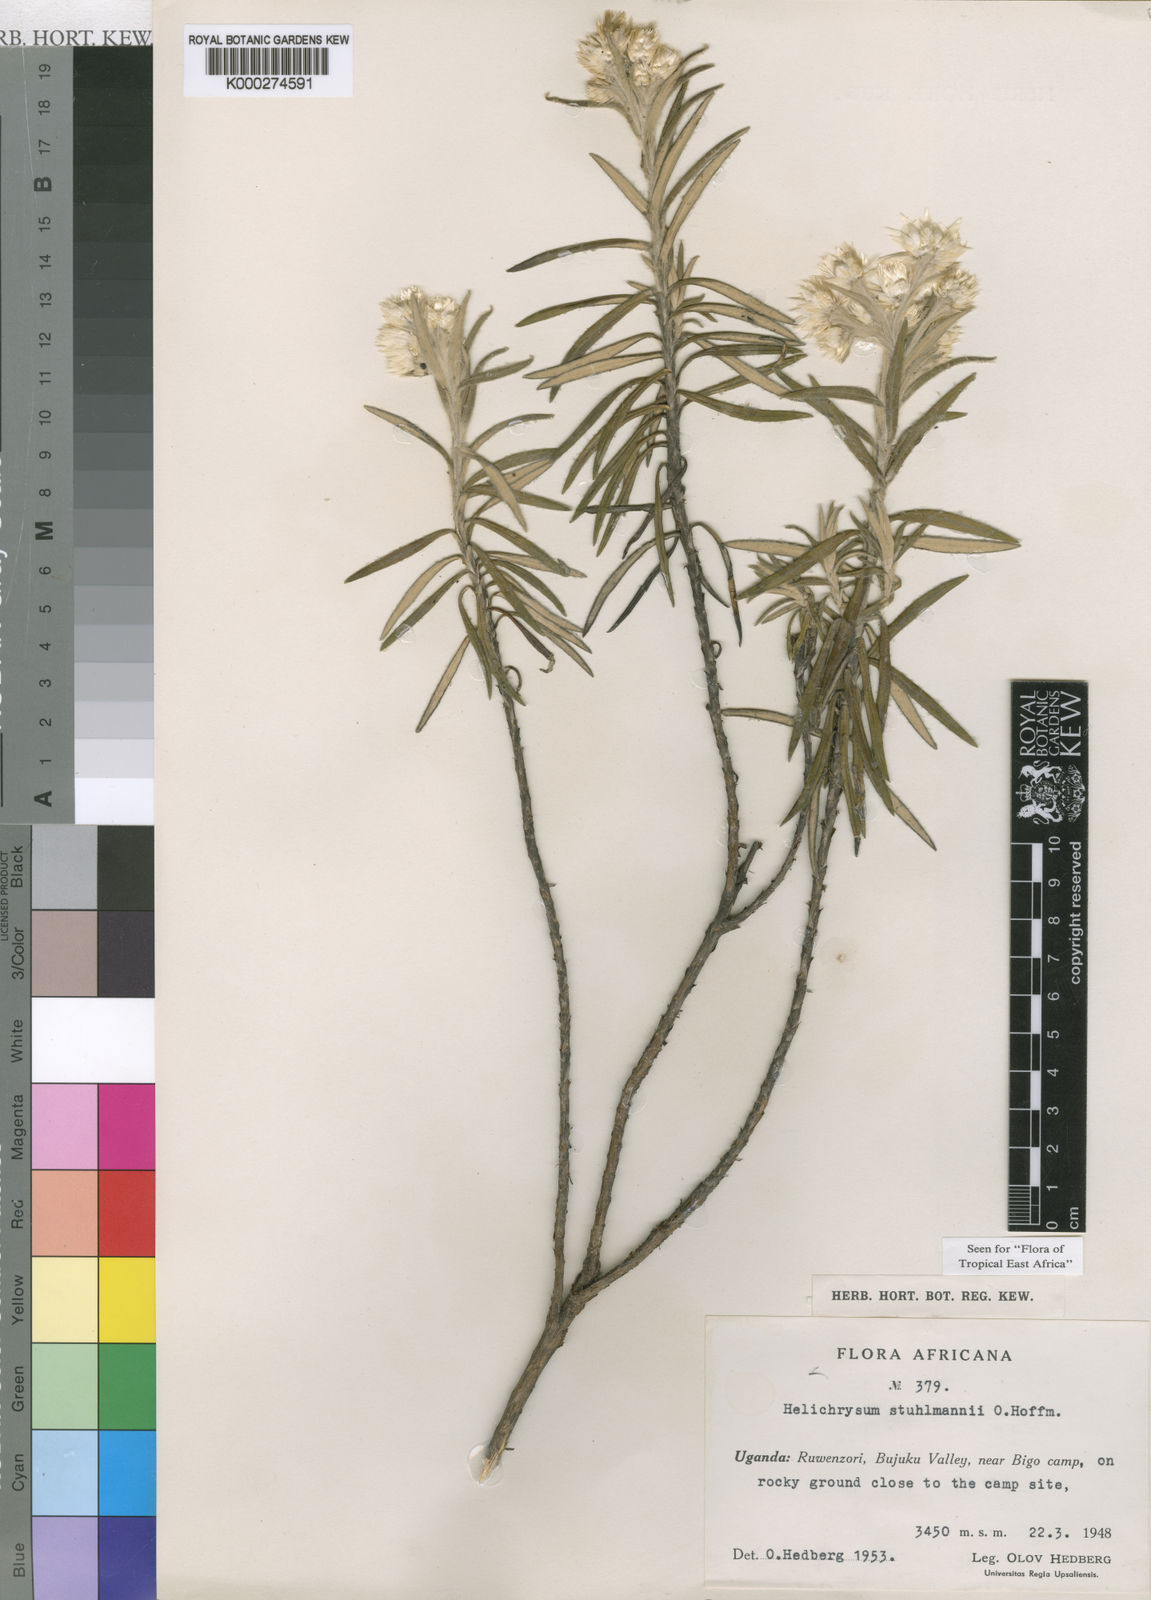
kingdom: Plantae
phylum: Tracheophyta
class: Magnoliopsida
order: Asterales
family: Asteraceae
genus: Helichrysum
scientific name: Helichrysum stuhlmannii
